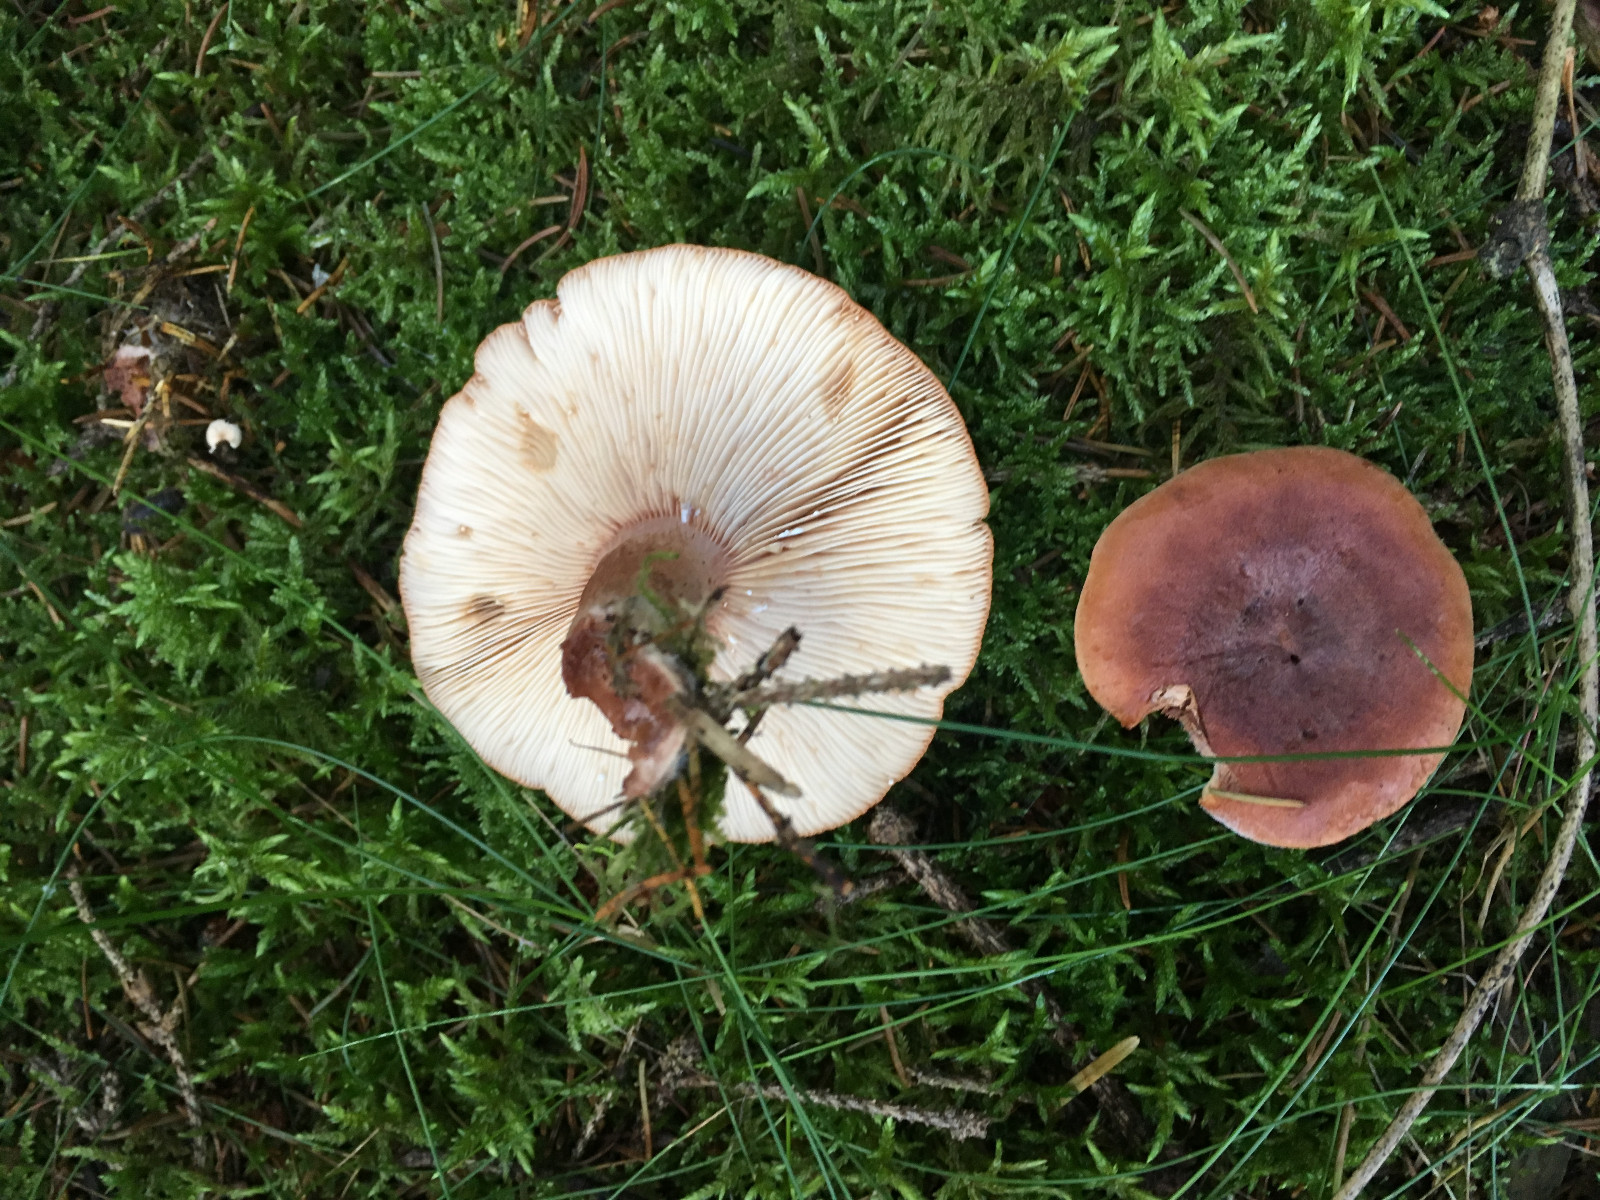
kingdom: Fungi
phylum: Basidiomycota
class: Agaricomycetes
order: Russulales
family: Russulaceae
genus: Lactarius
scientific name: Lactarius rufus
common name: rødbrun mælkehat
